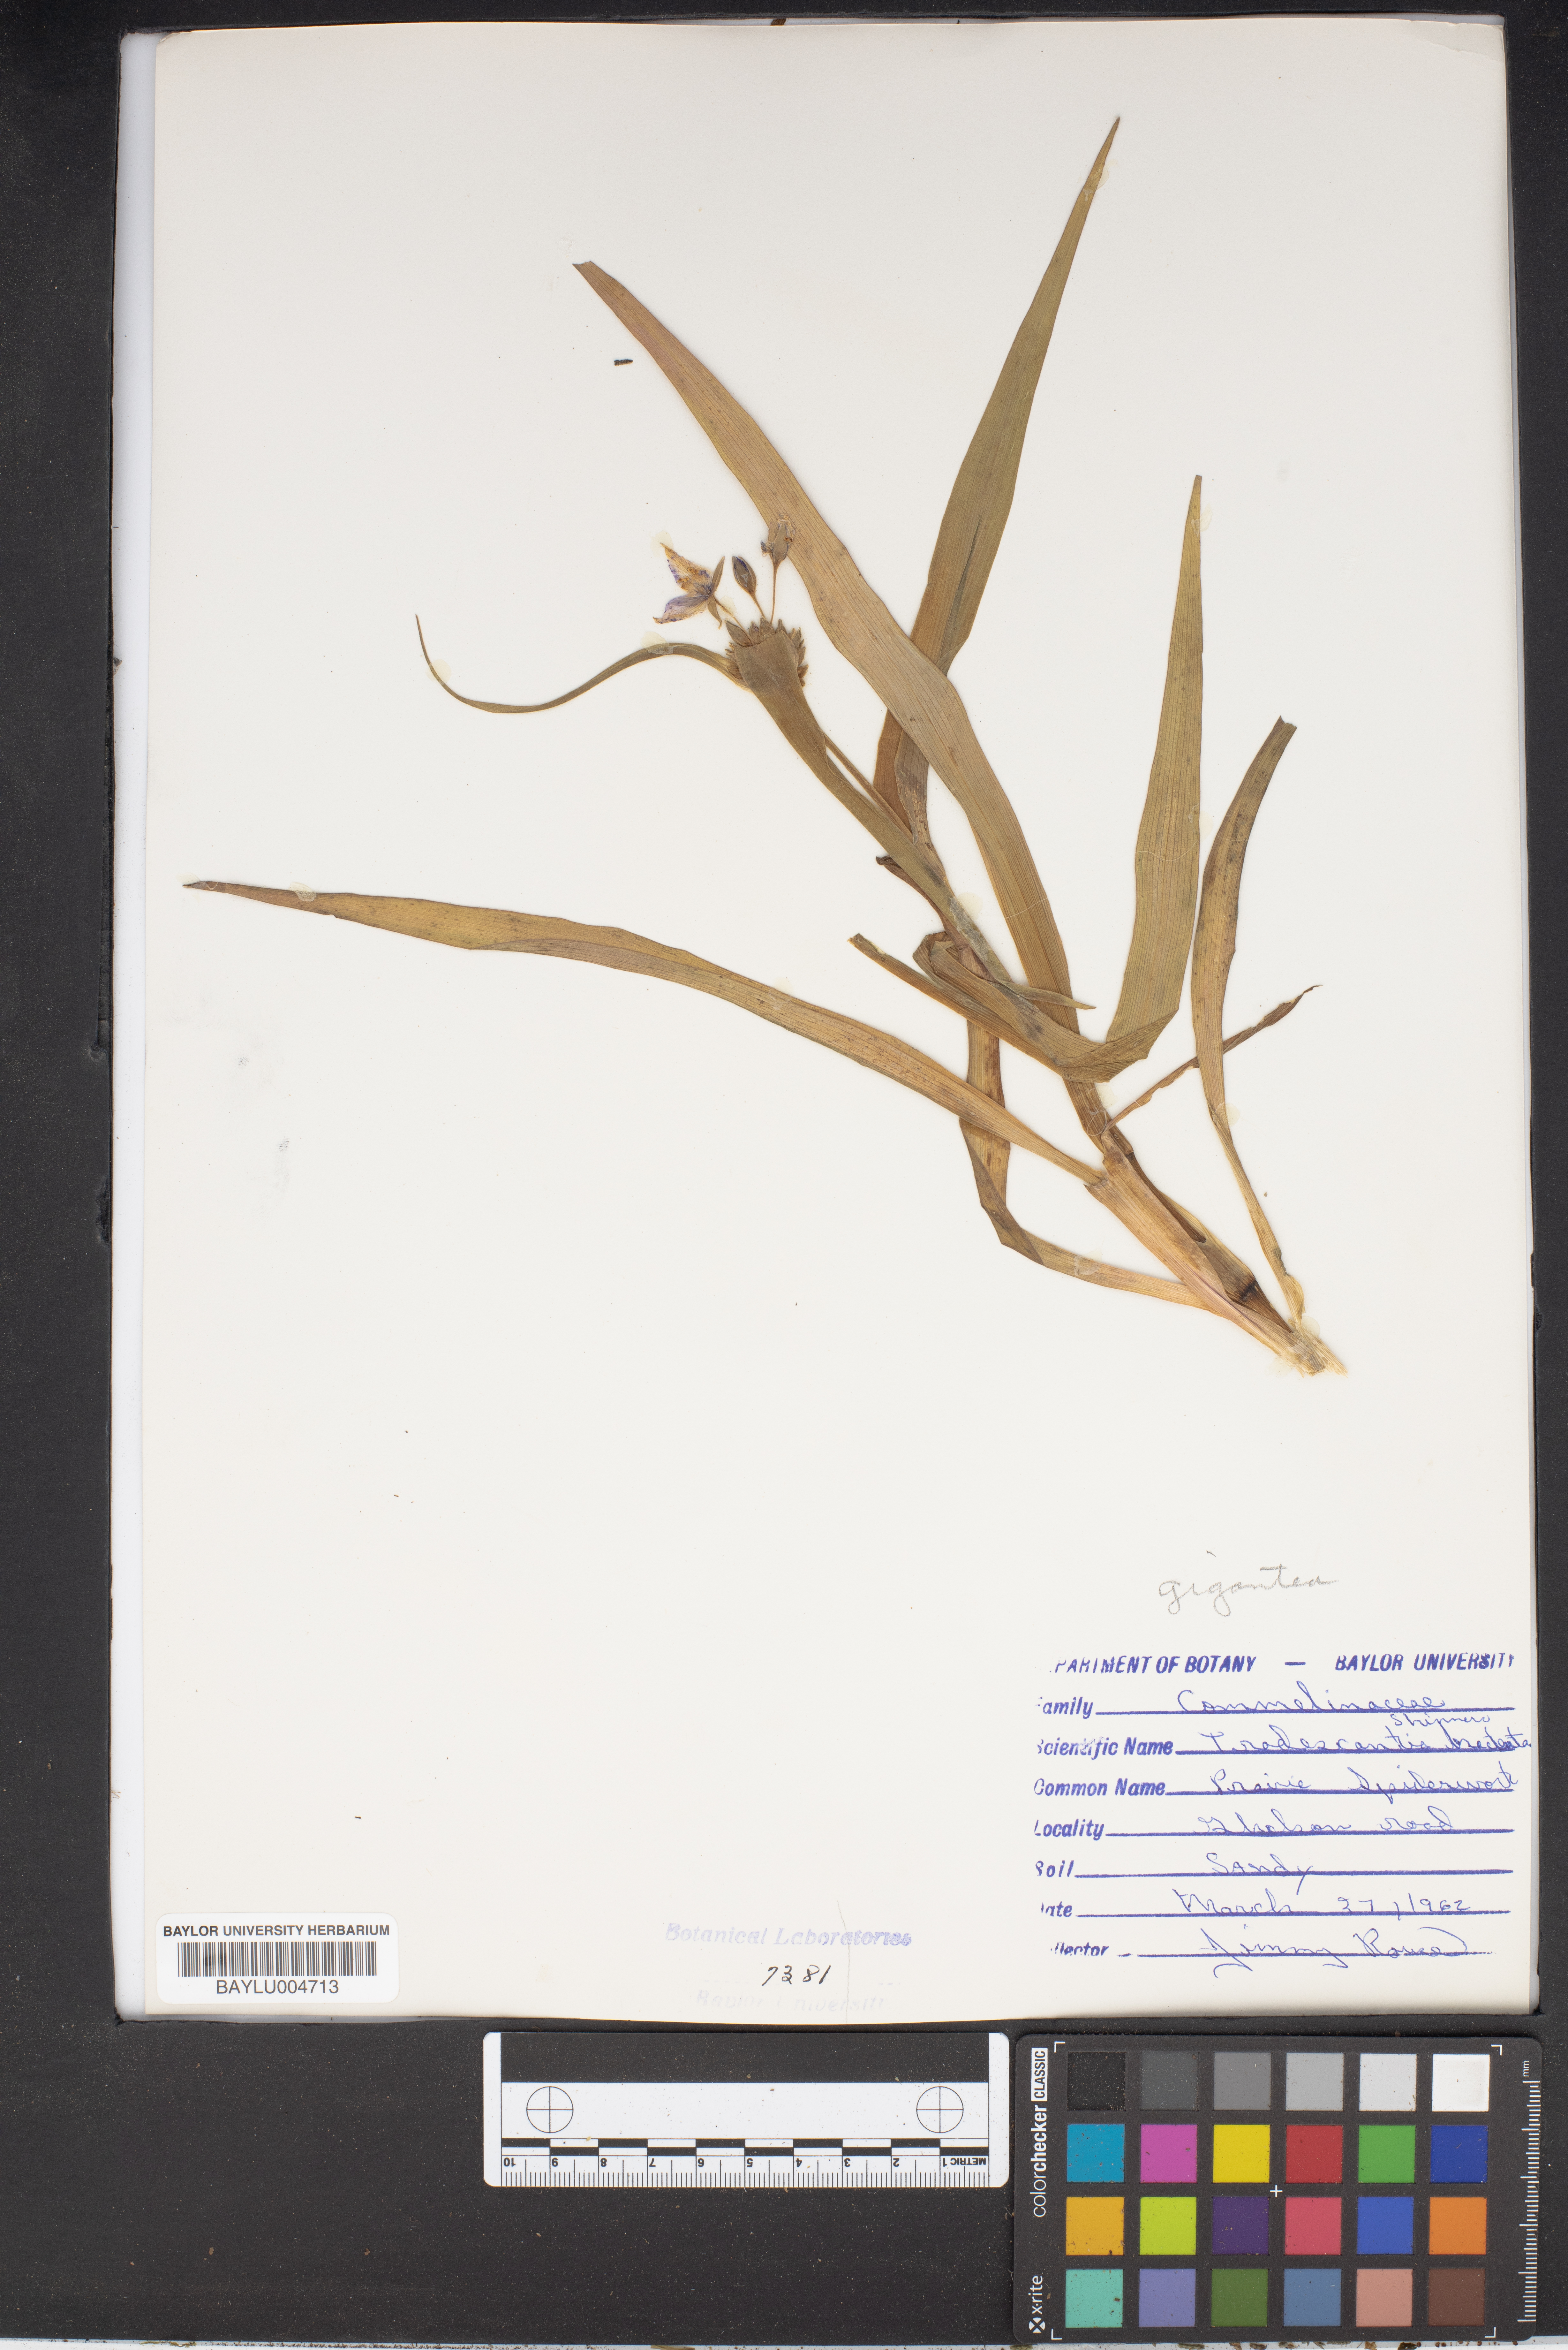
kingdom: Plantae
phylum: Tracheophyta
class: Liliopsida
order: Commelinales
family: Commelinaceae
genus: Tradescantia
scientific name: Tradescantia bracteata
